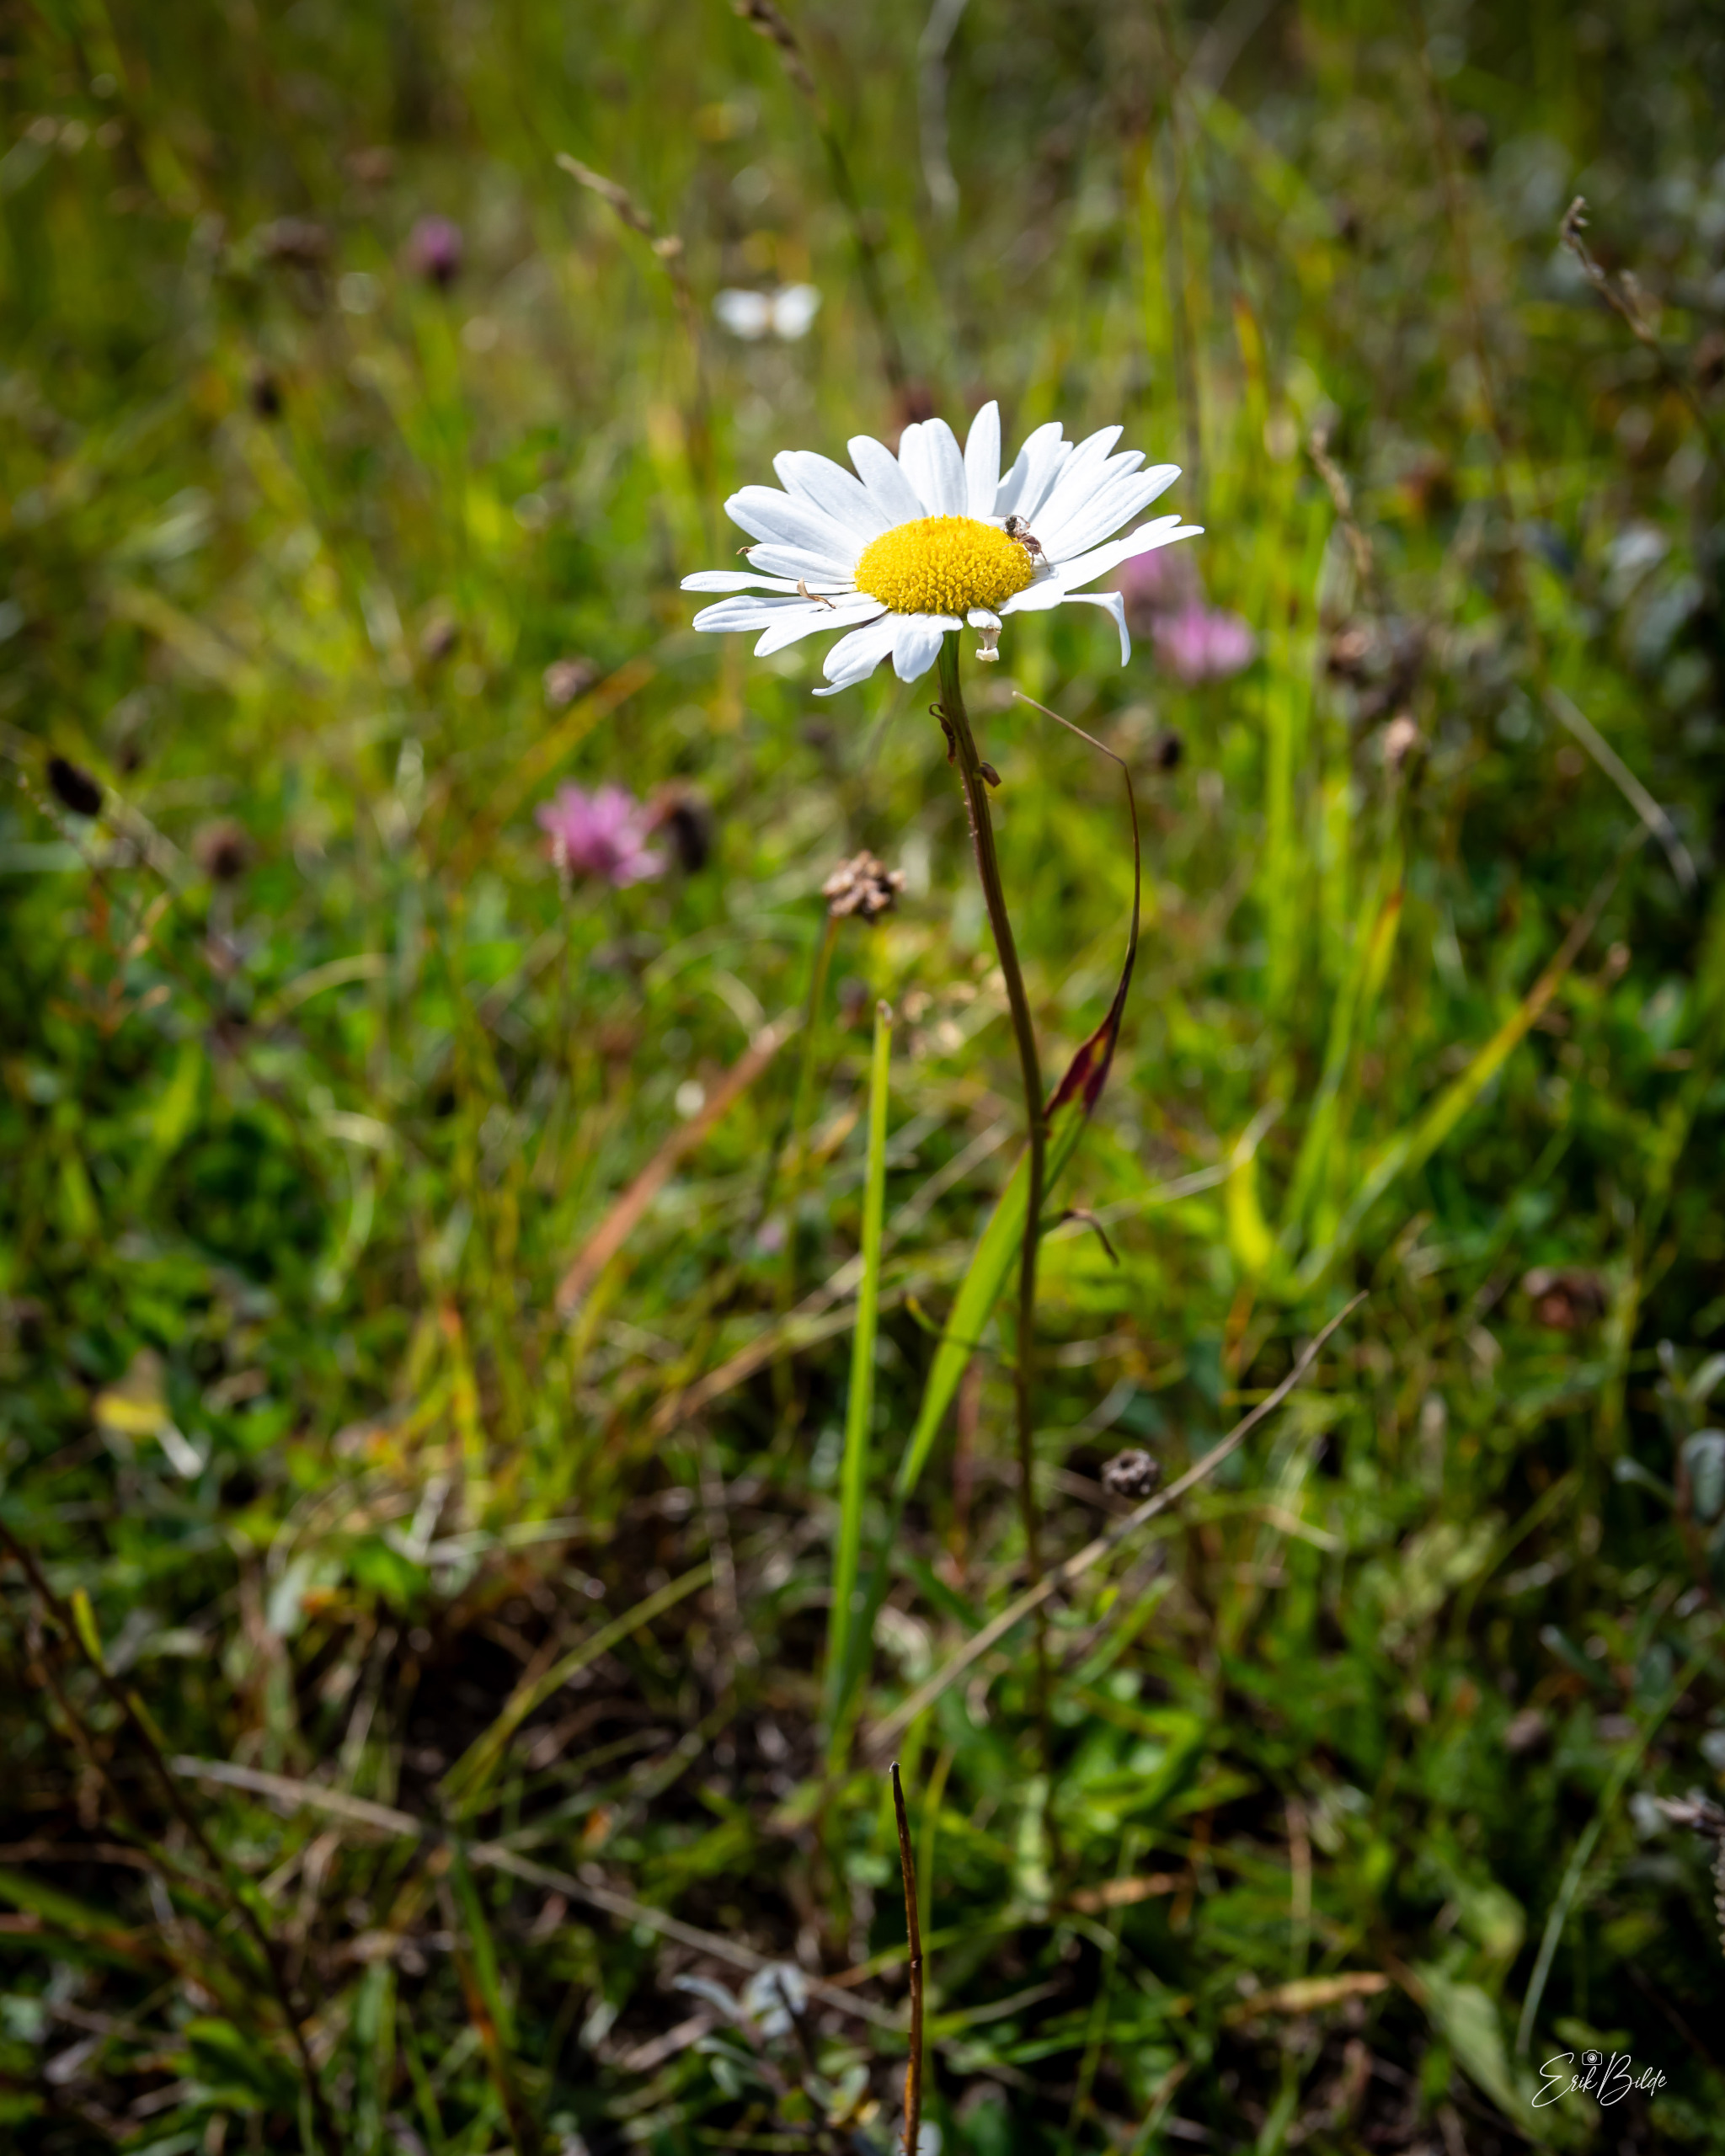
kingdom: Plantae
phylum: Tracheophyta
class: Magnoliopsida
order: Asterales
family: Asteraceae
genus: Leucanthemum
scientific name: Leucanthemum vulgare
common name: Hvid okseøje
